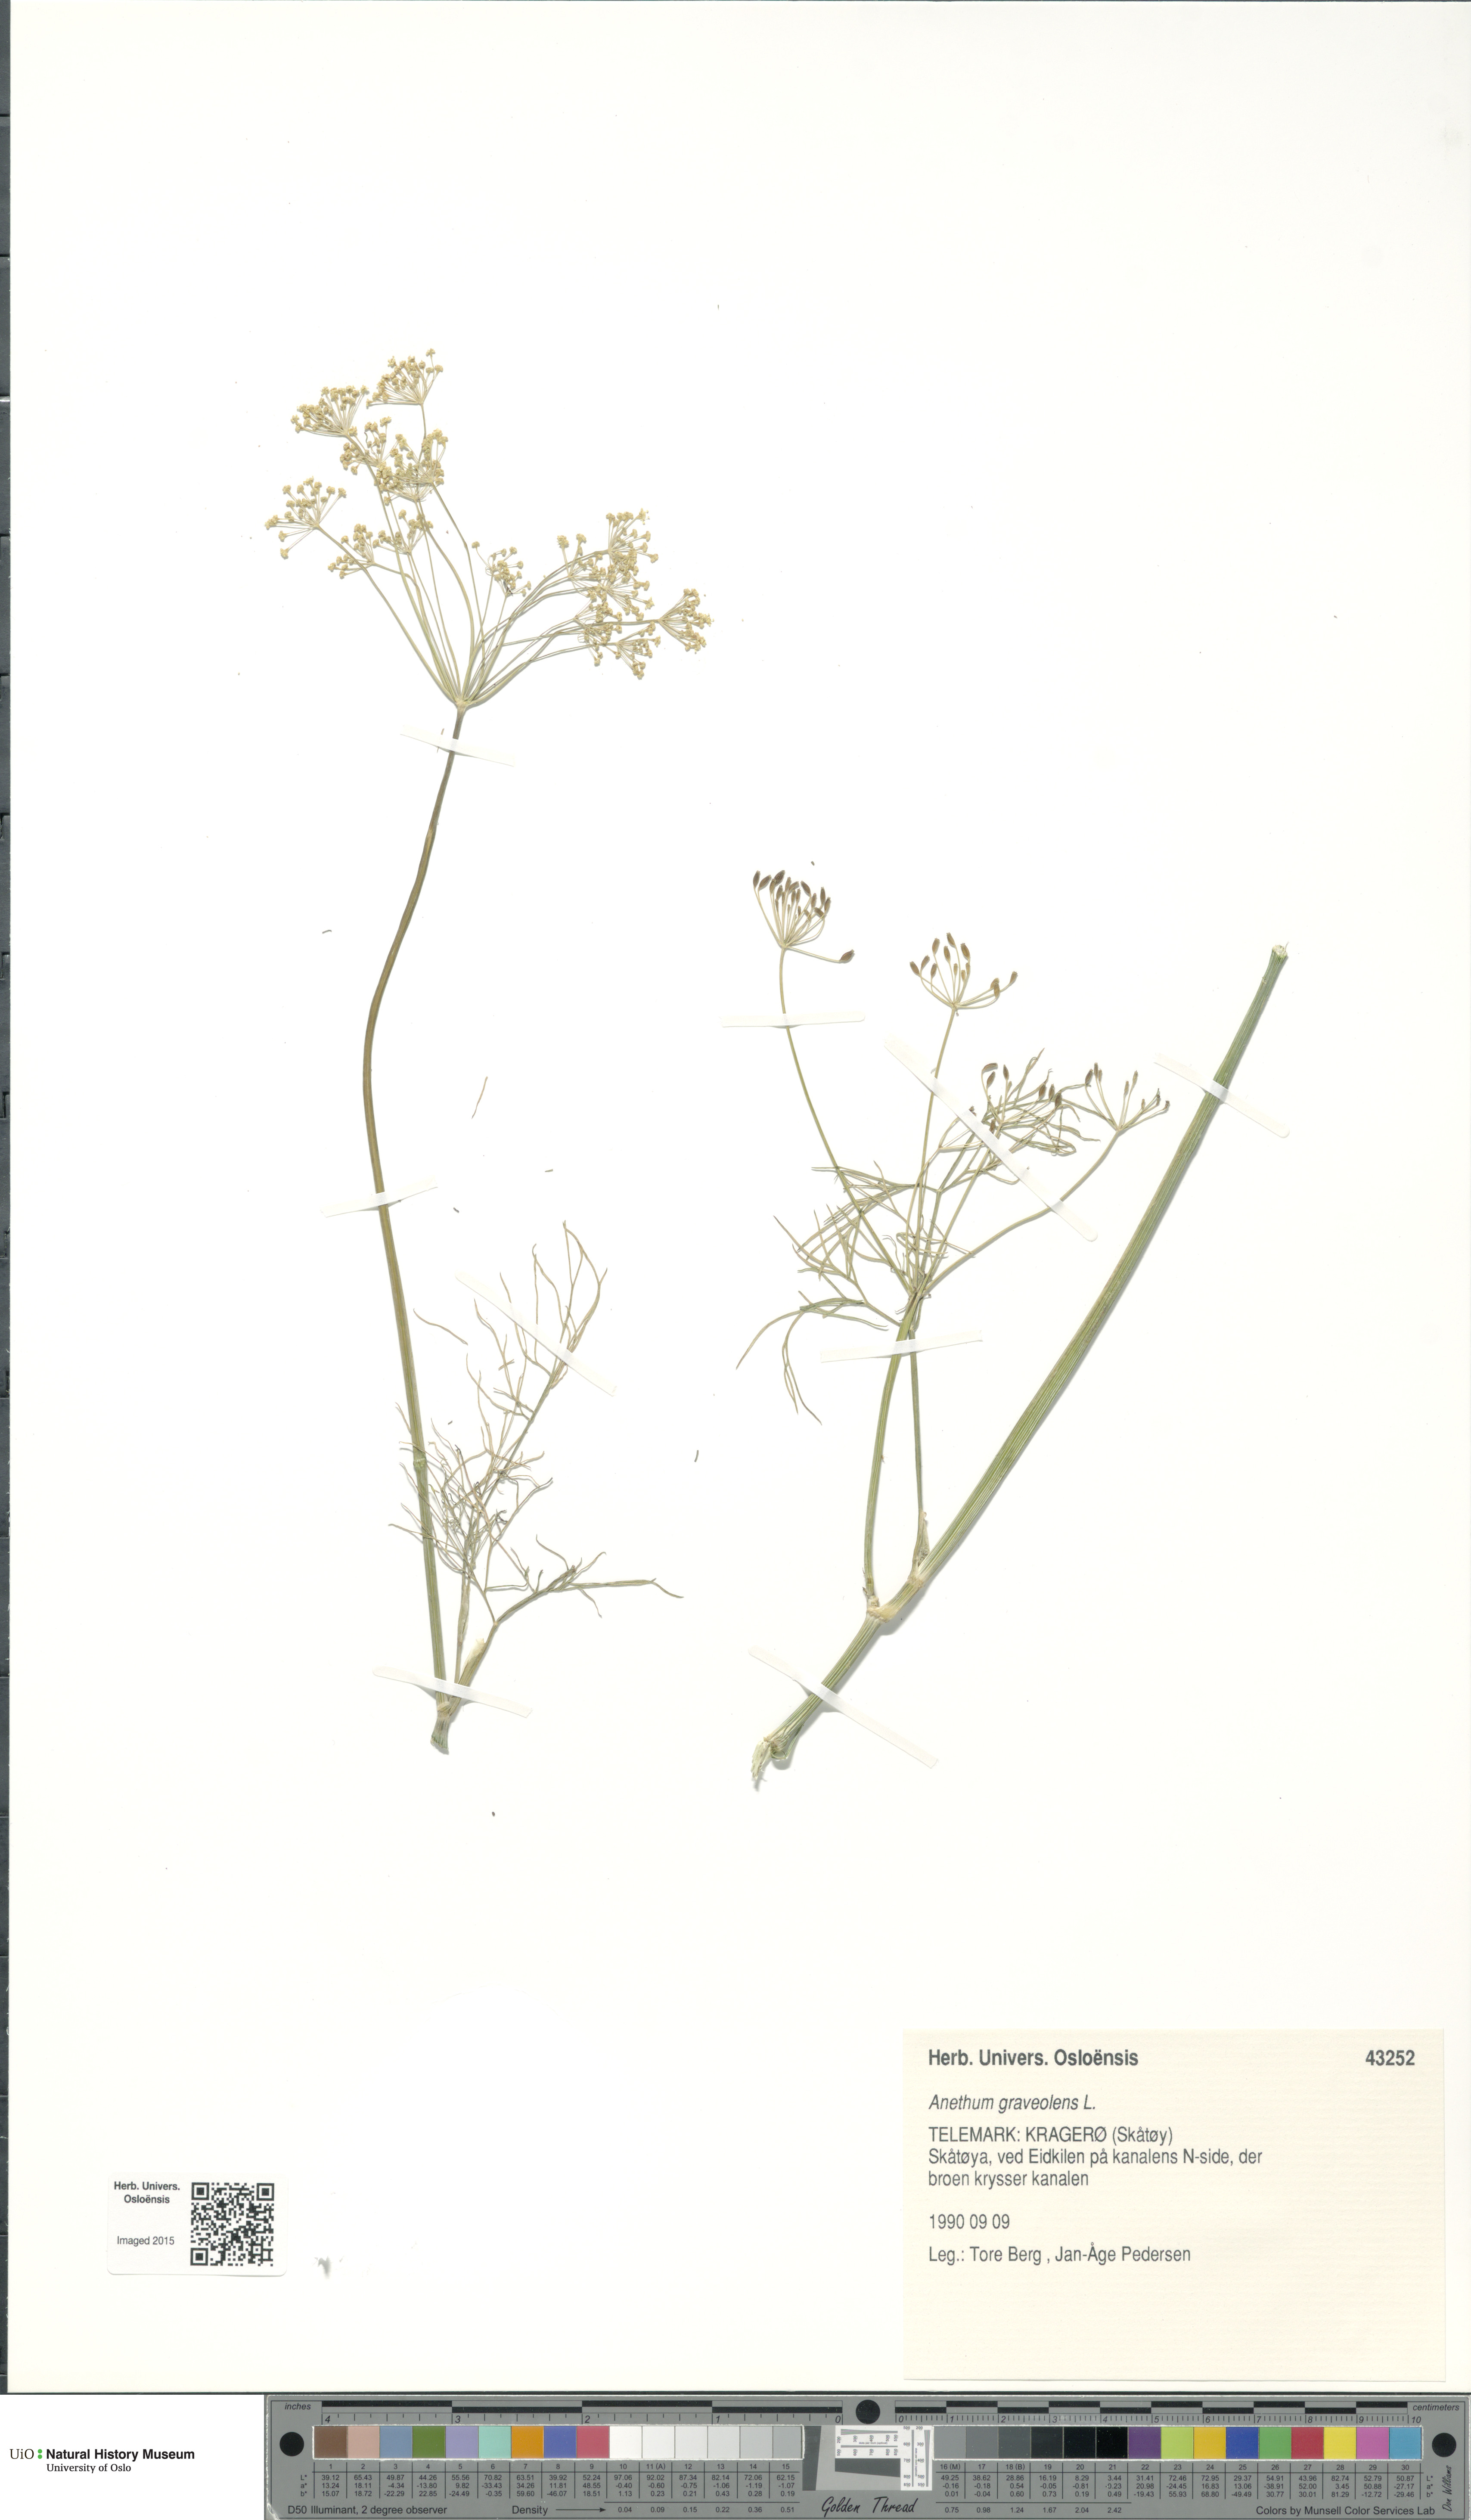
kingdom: Plantae
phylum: Tracheophyta
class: Magnoliopsida
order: Apiales
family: Apiaceae
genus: Anethum
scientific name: Anethum graveolens
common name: Dill
